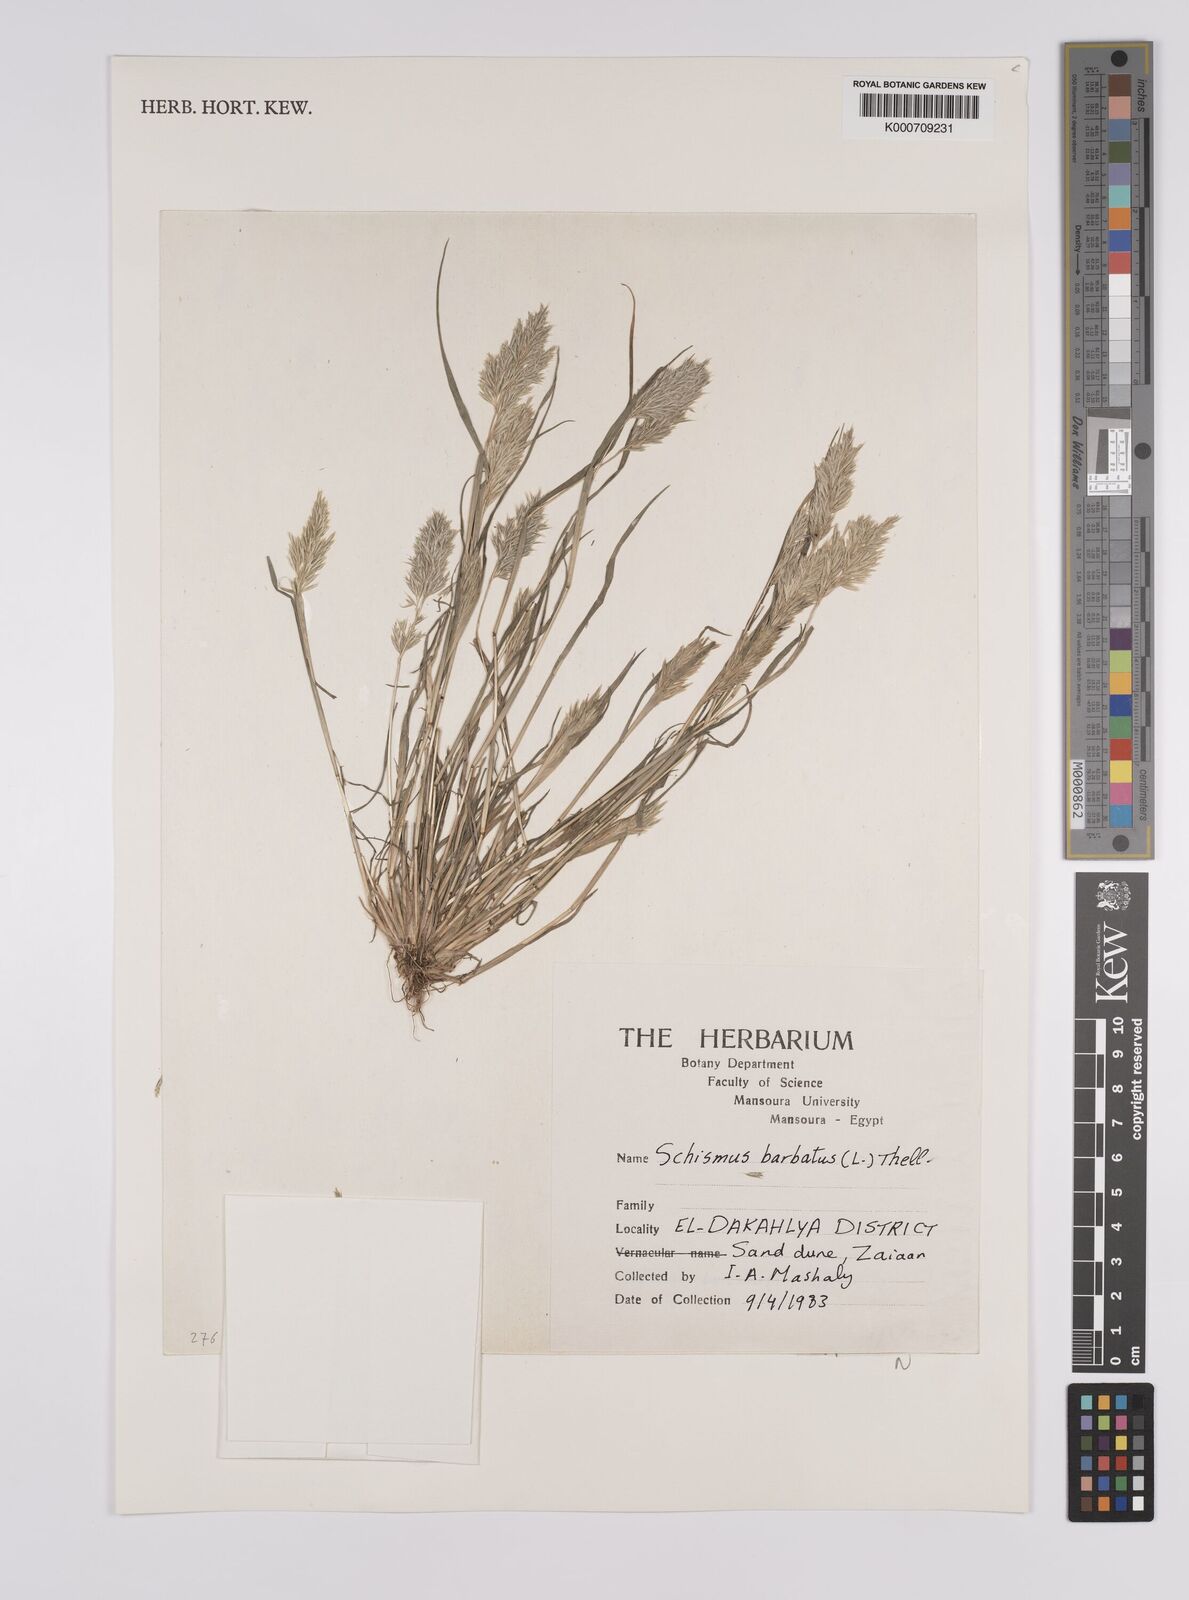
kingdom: Plantae
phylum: Tracheophyta
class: Liliopsida
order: Poales
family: Poaceae
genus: Schismus
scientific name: Schismus barbatus
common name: Kelch-grass
